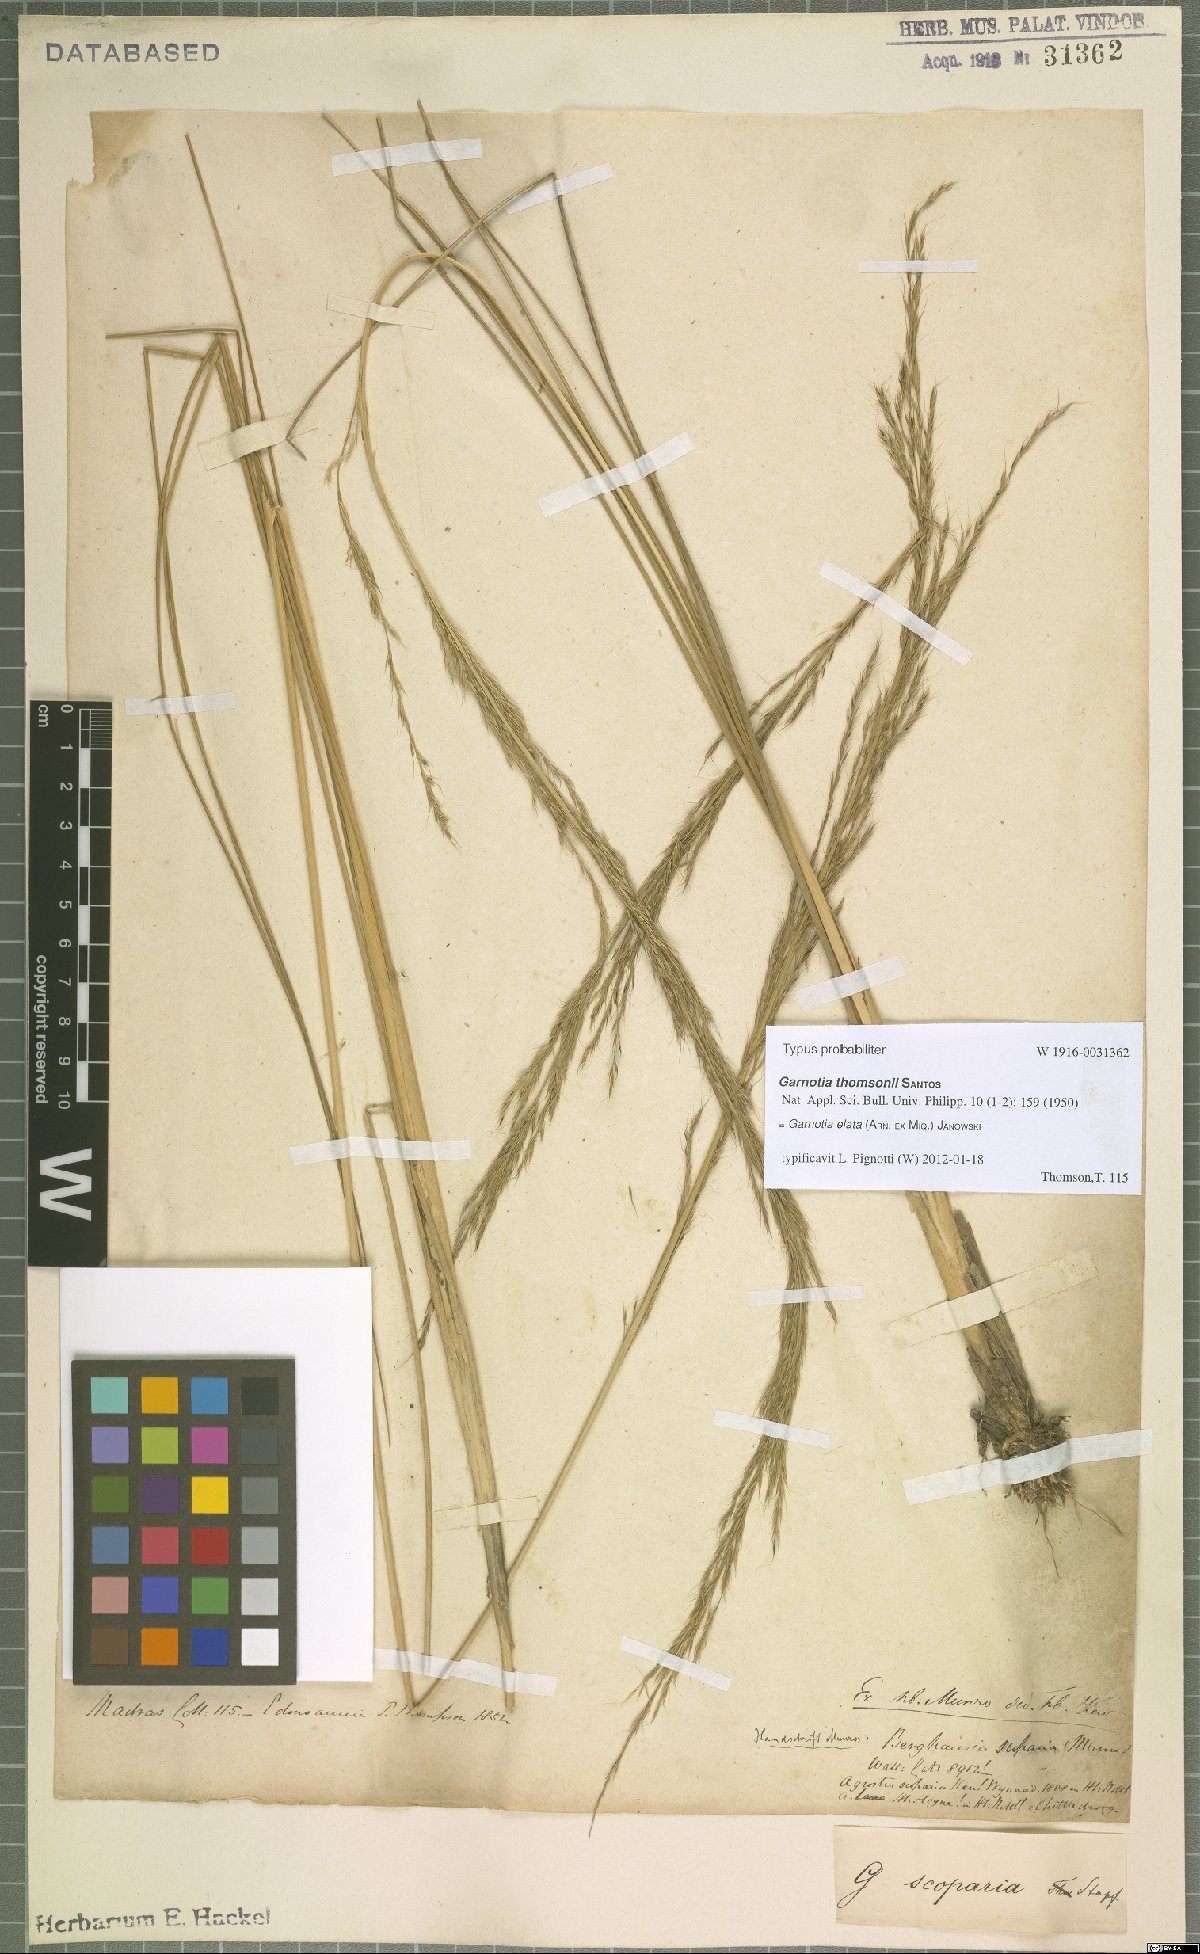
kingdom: Plantae
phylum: Tracheophyta
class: Liliopsida
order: Poales
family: Poaceae
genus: Garnotia
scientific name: Garnotia elata
